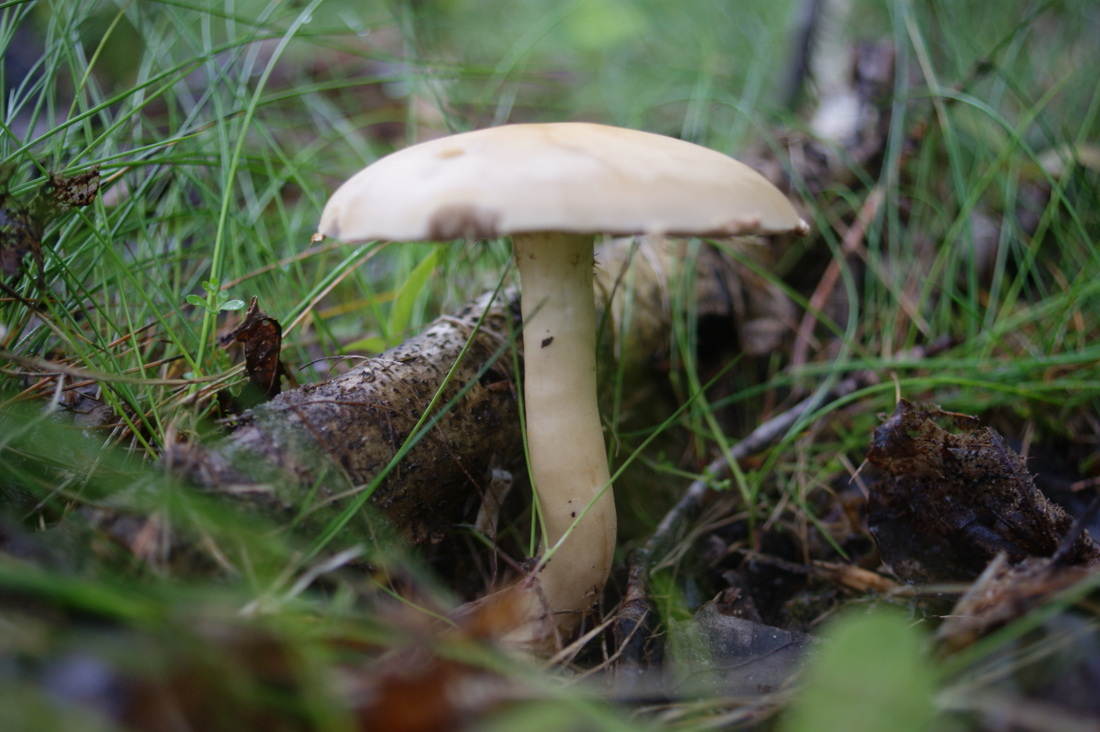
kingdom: Fungi
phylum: Basidiomycota
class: Agaricomycetes
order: Agaricales
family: Strophariaceae
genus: Agrocybe
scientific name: Agrocybe praecox
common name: tidlig agerhat
